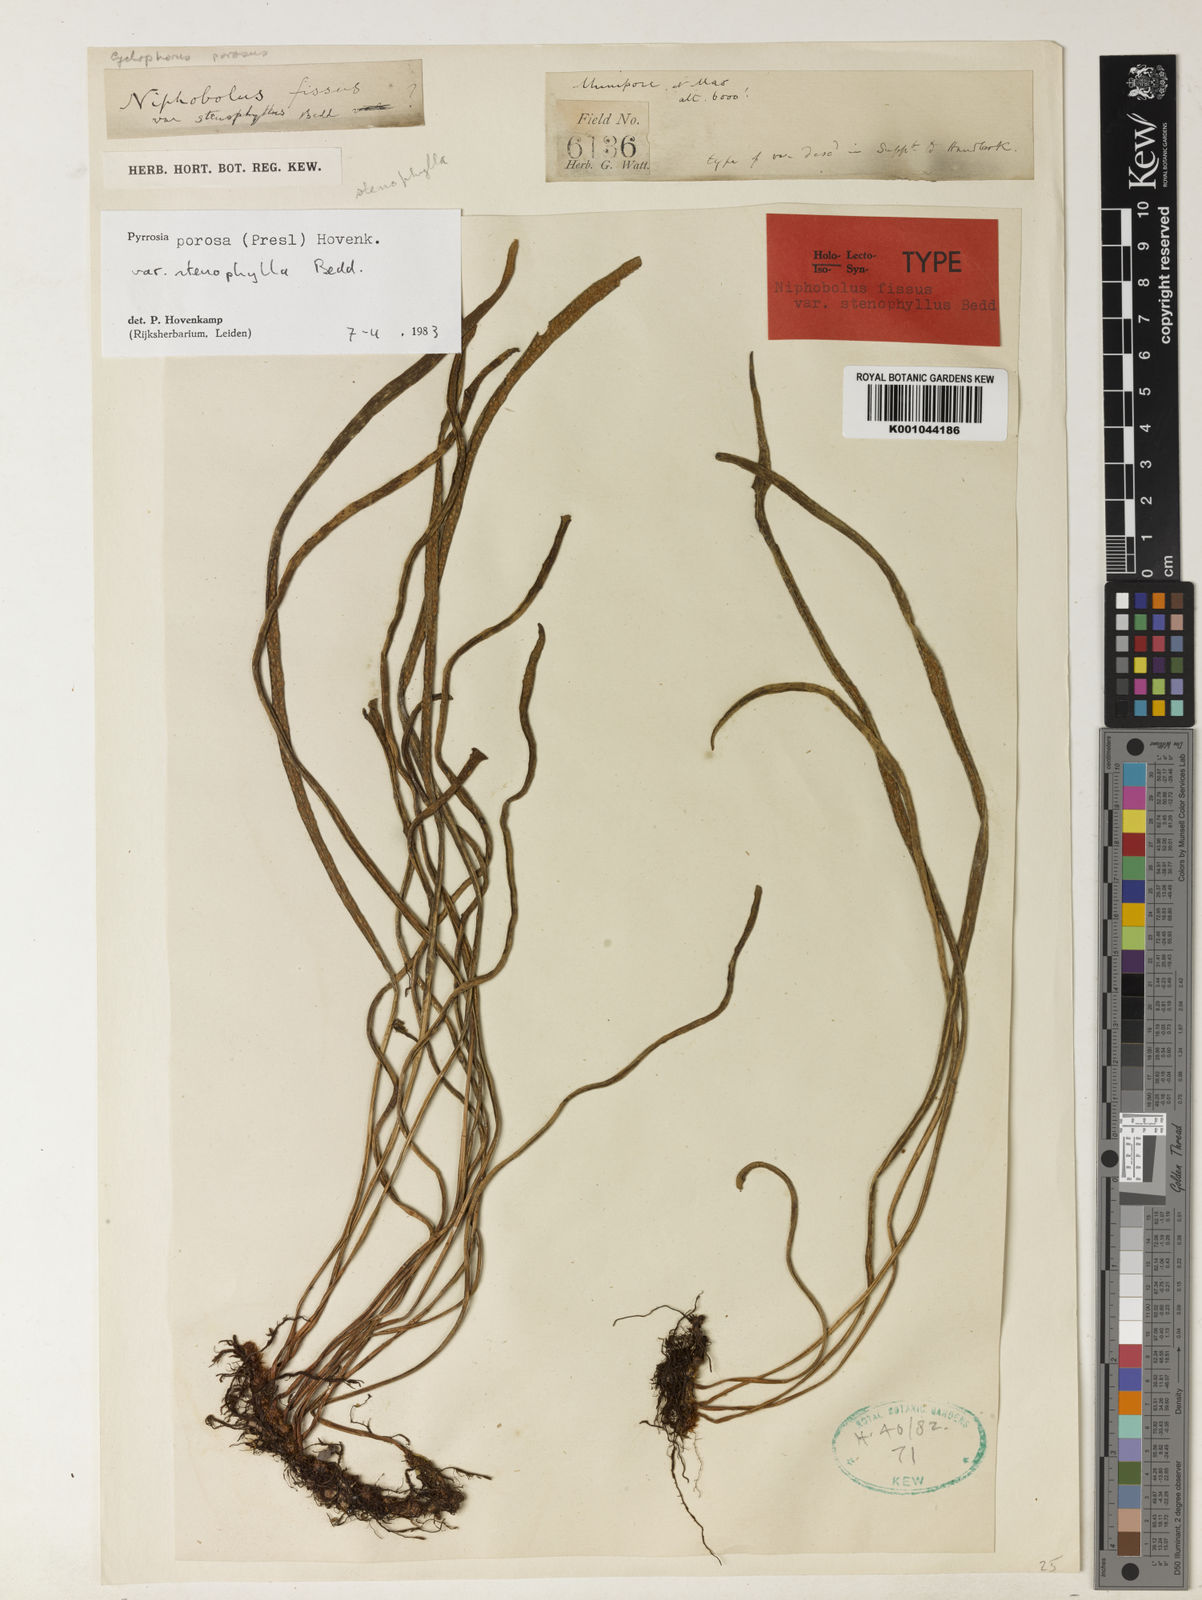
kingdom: Plantae
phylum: Tracheophyta
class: Polypodiopsida
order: Polypodiales
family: Polypodiaceae
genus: Pyrrosia
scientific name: Pyrrosia stenophylla
